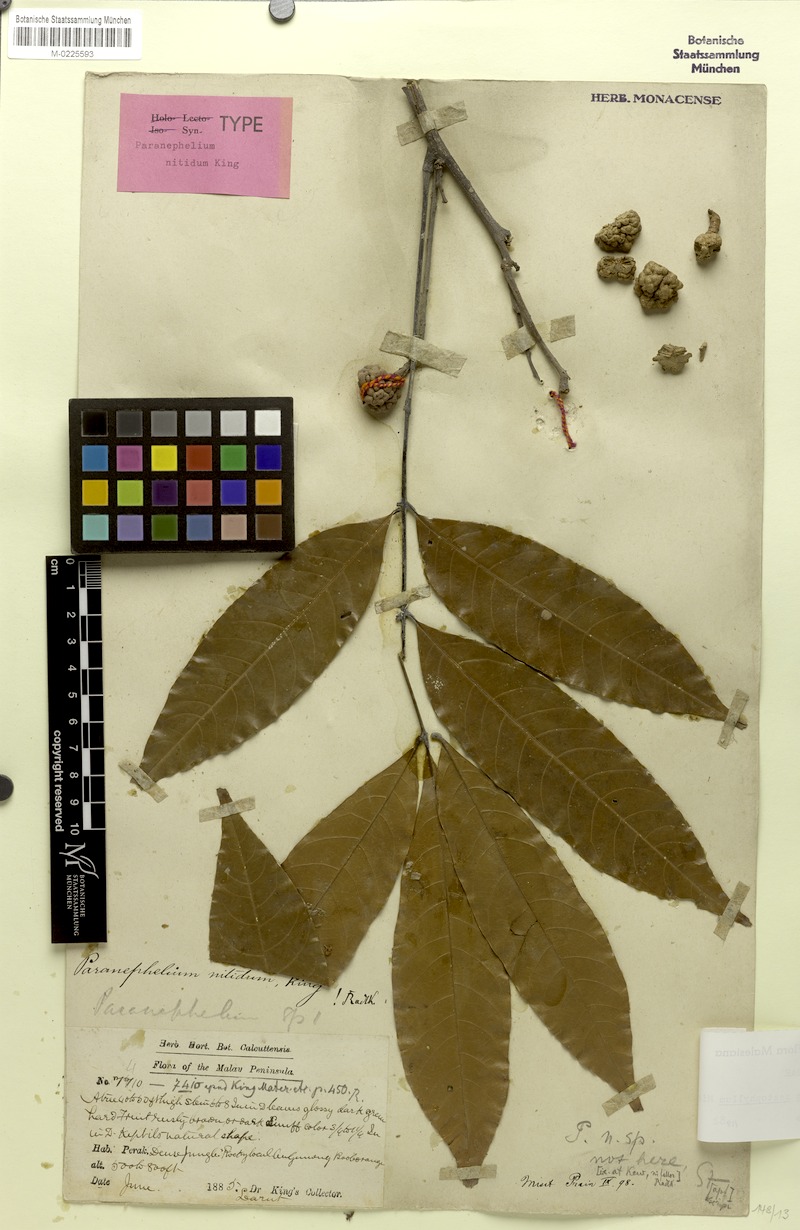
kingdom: Plantae
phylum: Tracheophyta
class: Magnoliopsida
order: Sapindales
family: Sapindaceae
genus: Paranephelium
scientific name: Paranephelium xestophyllum
